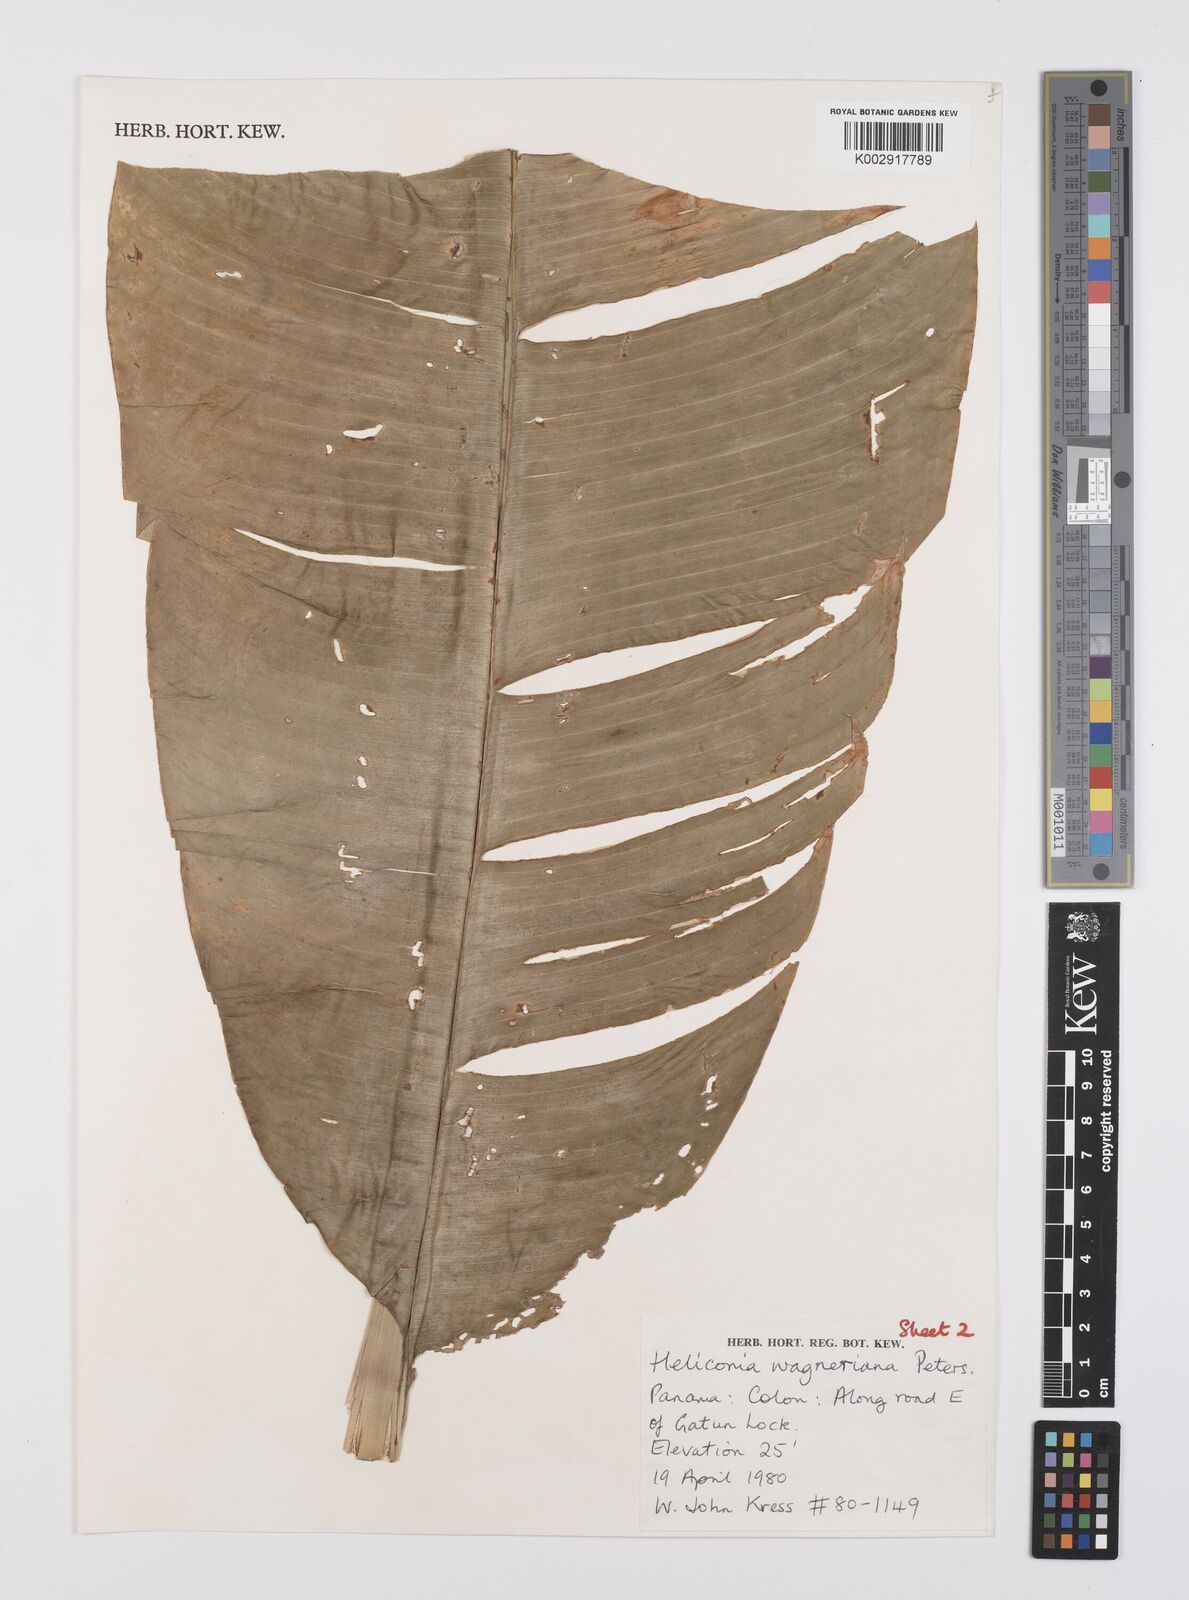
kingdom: Plantae
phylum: Tracheophyta
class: Liliopsida
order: Zingiberales
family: Heliconiaceae
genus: Heliconia
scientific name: Heliconia wagneriana
